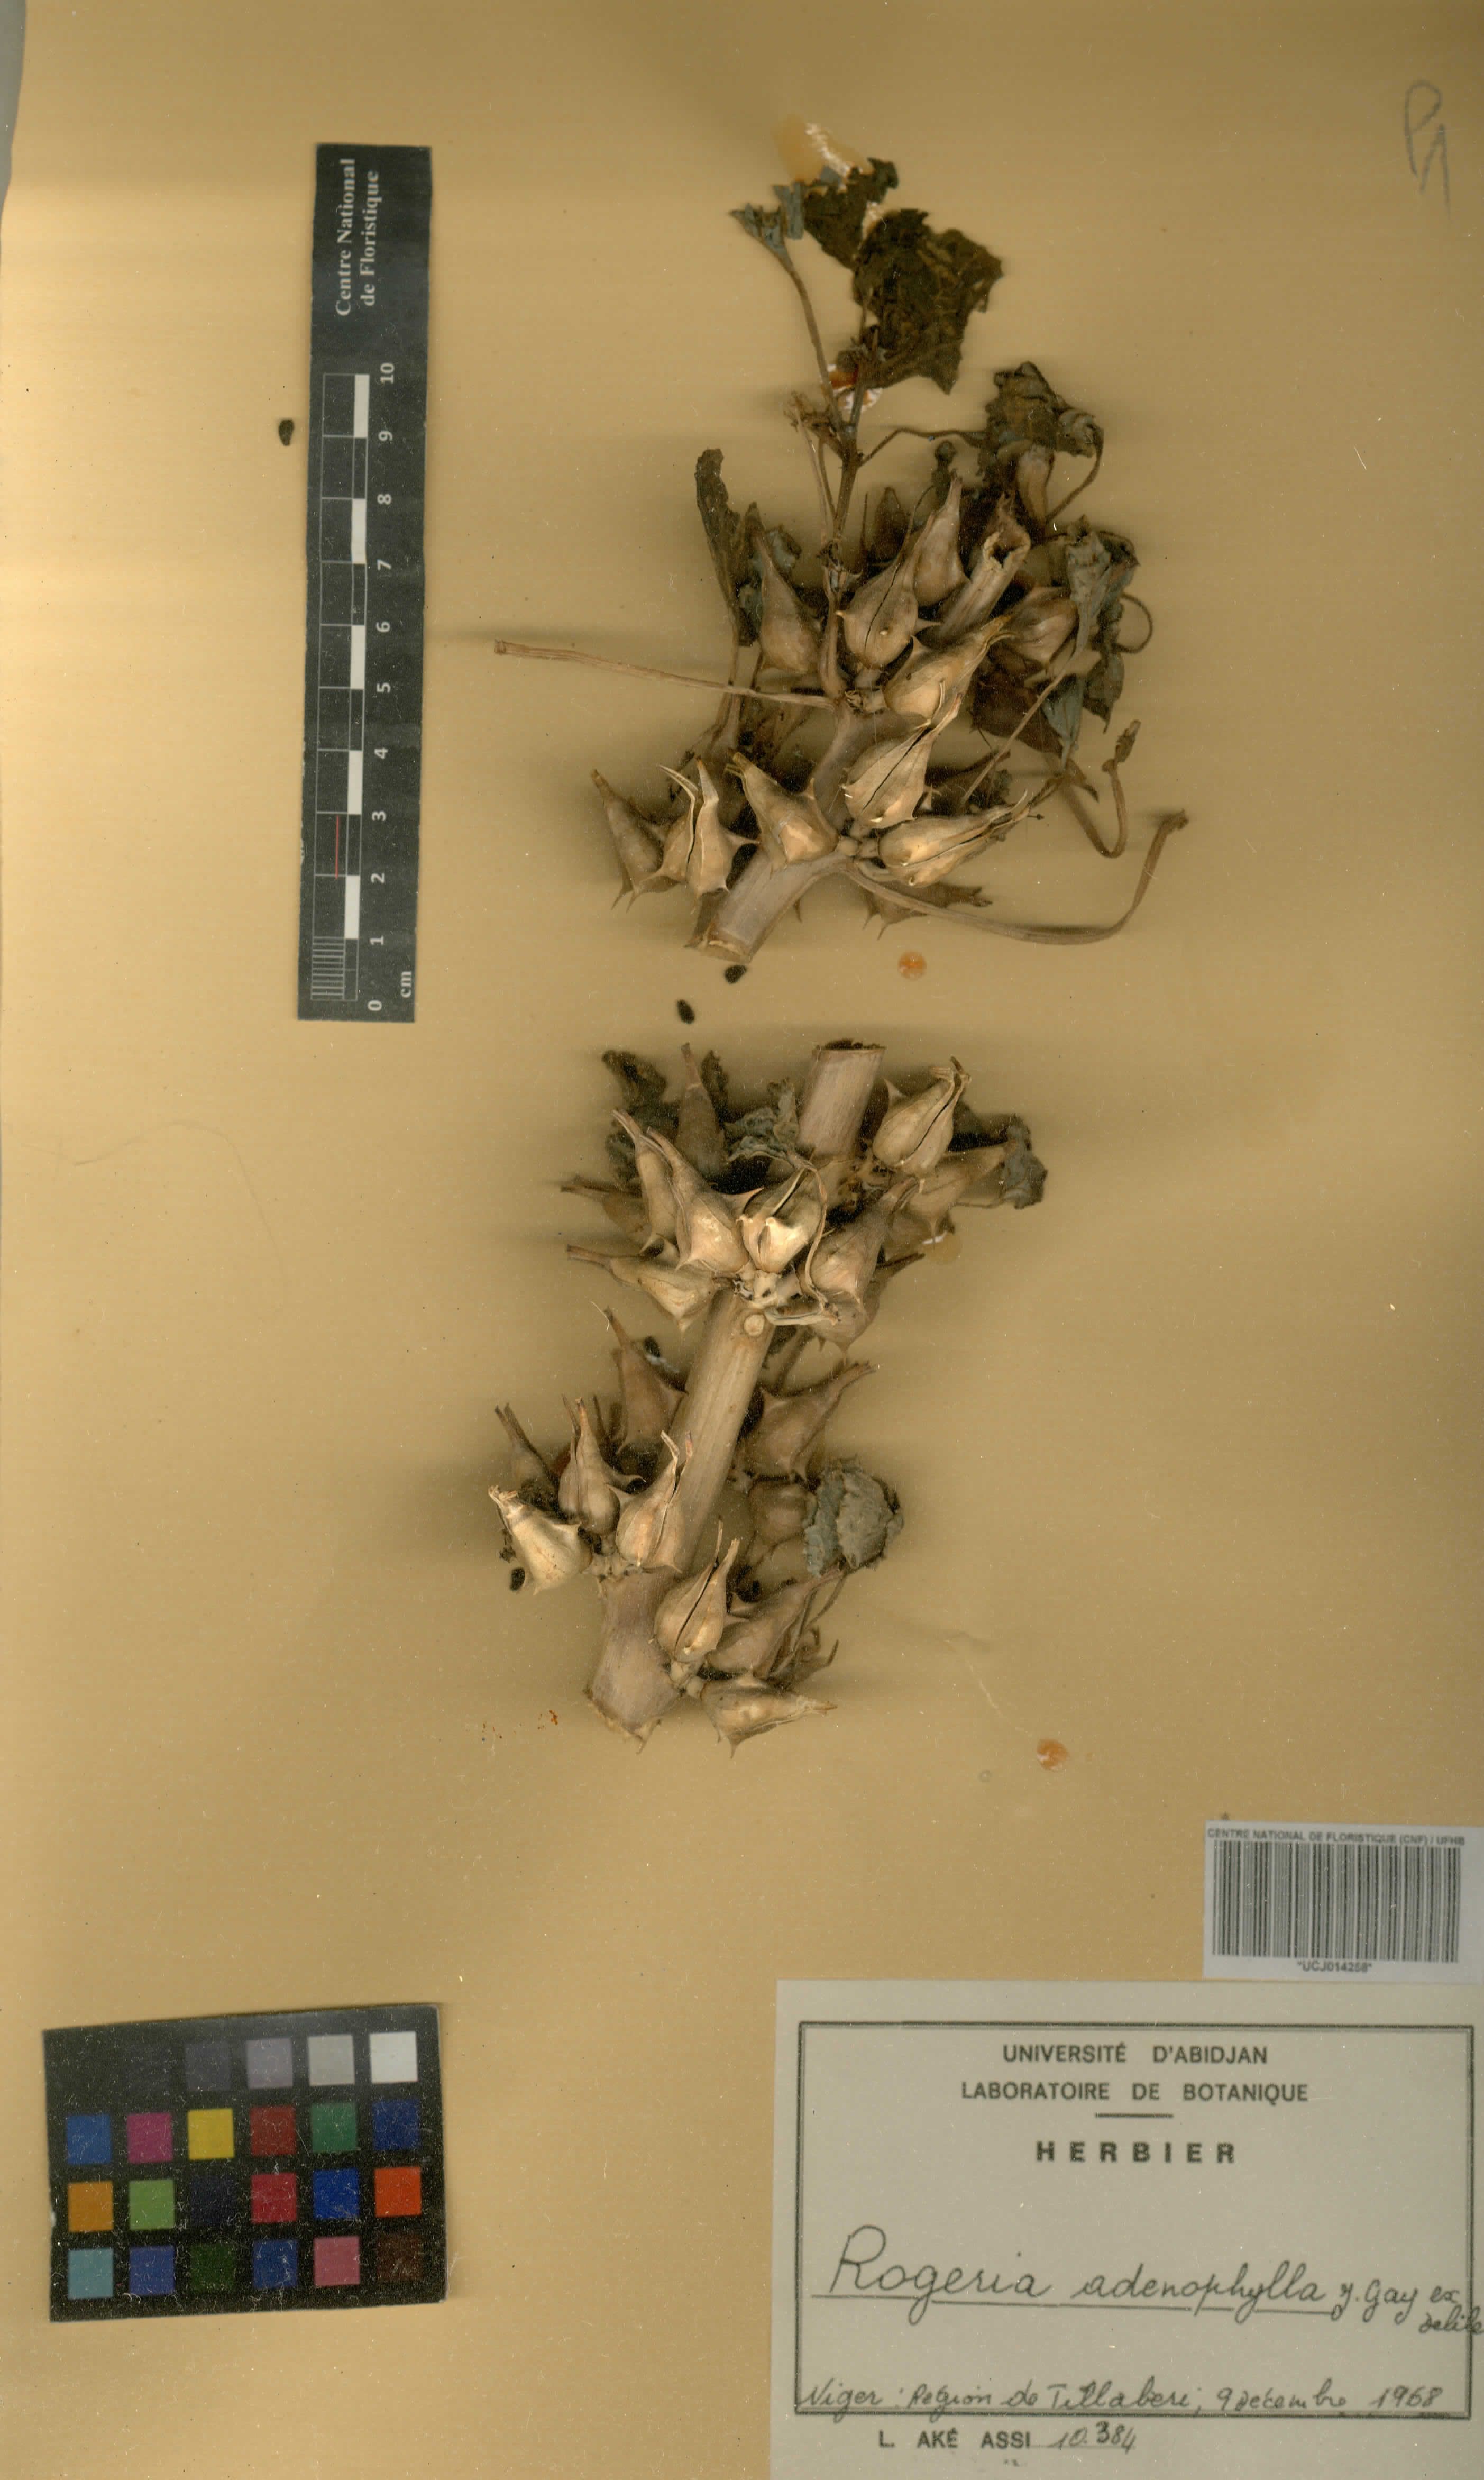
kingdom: Plantae
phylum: Tracheophyta
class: Magnoliopsida
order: Lamiales
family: Pedaliaceae
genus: Rogeria
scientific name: Rogeria adenophylla
